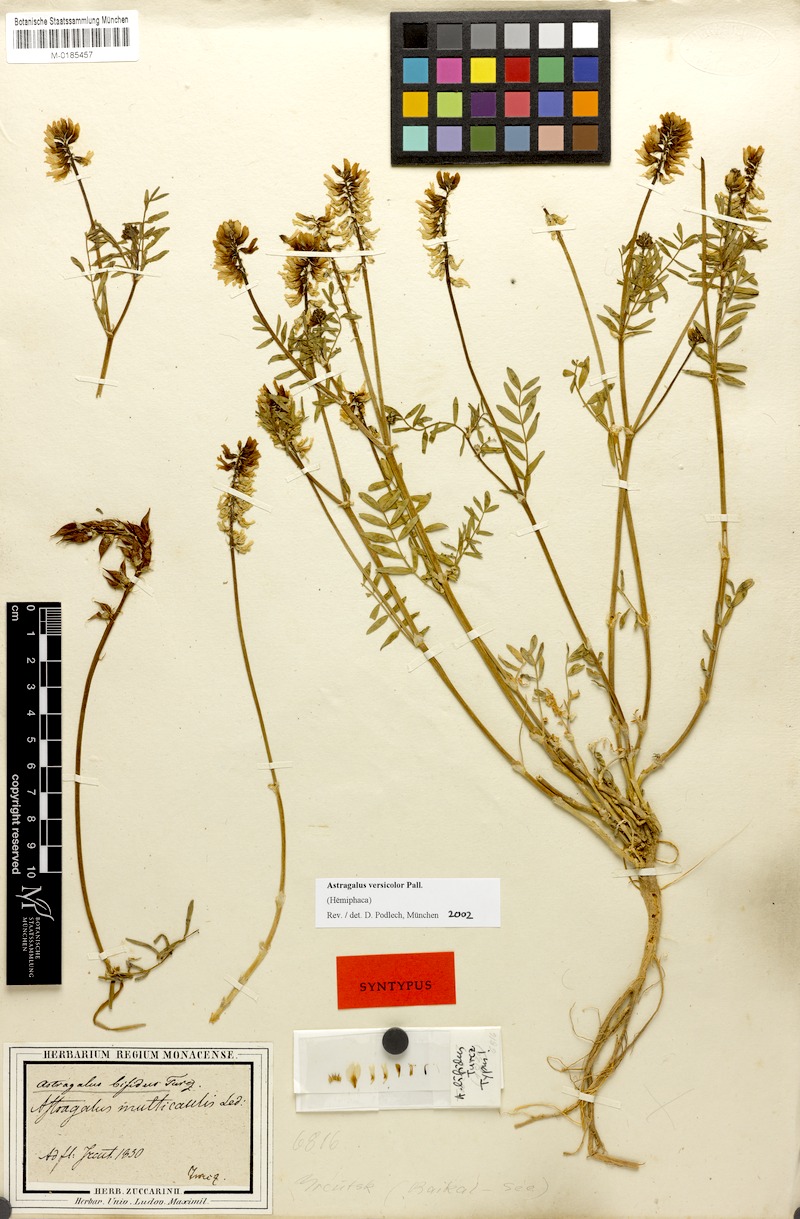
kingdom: Plantae
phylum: Tracheophyta
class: Magnoliopsida
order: Fabales
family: Fabaceae
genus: Astragalus
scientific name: Astragalus versicolor
